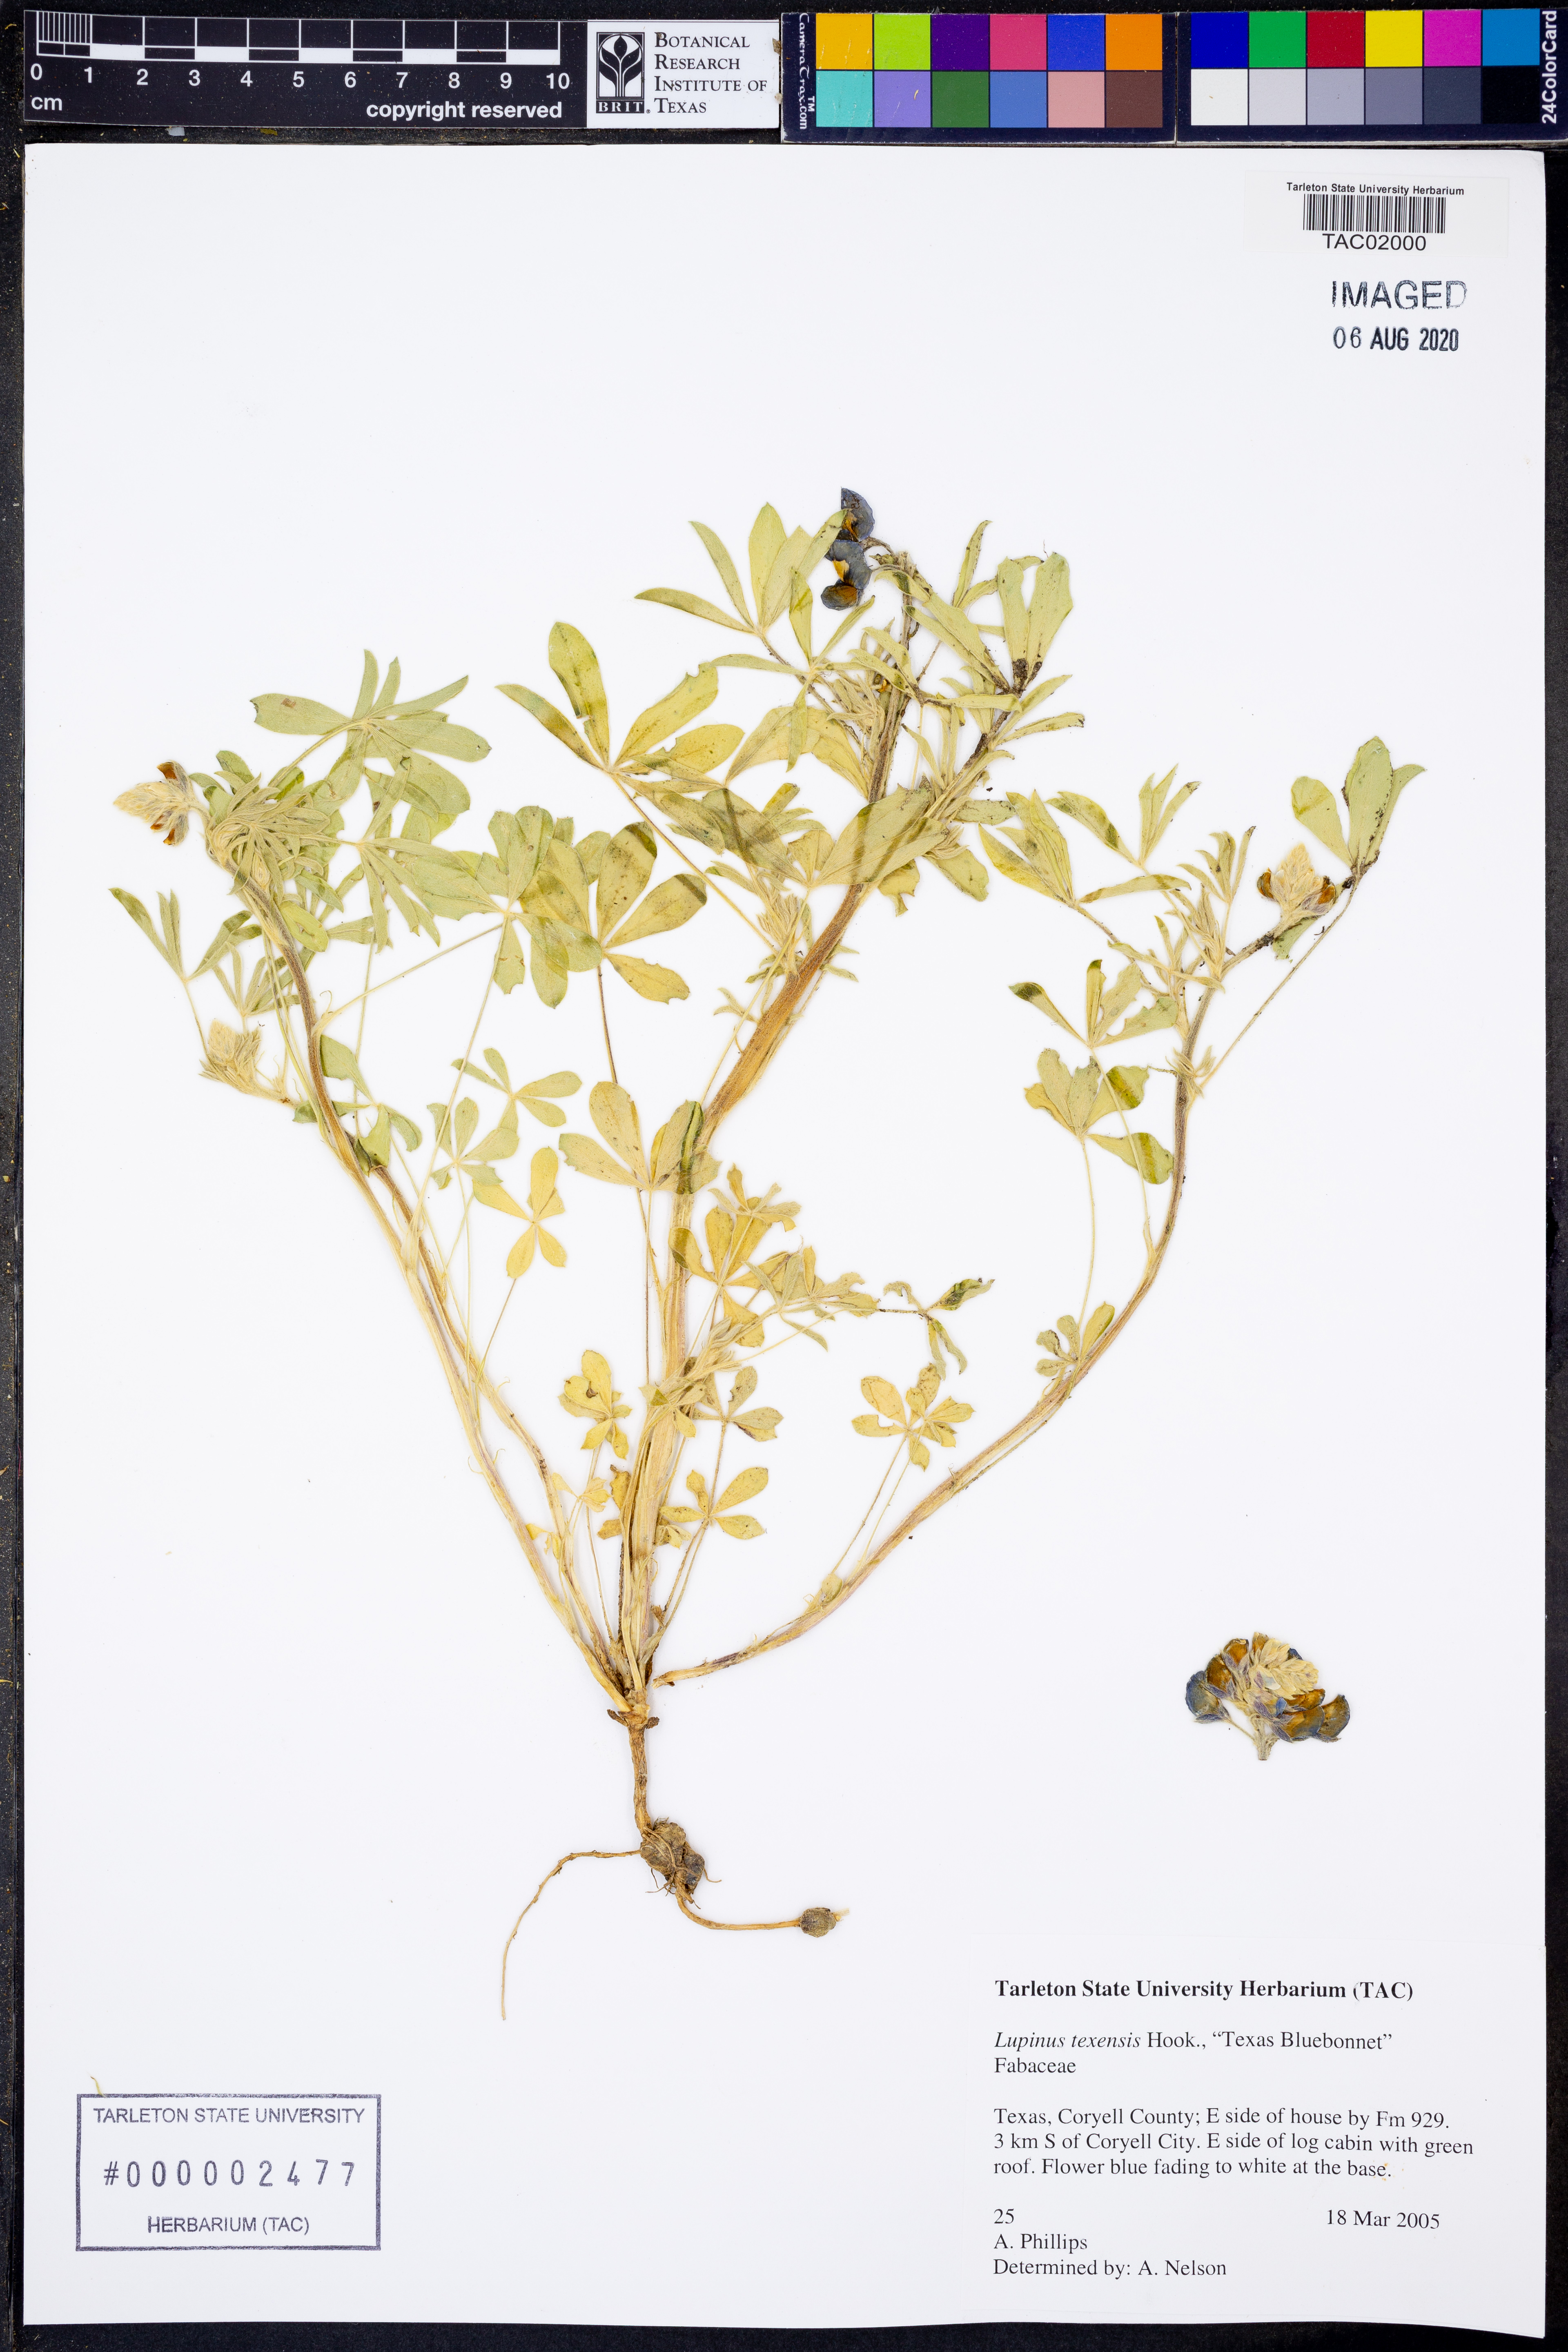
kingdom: Plantae
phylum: Tracheophyta
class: Magnoliopsida
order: Fabales
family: Fabaceae
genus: Lupinus
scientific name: Lupinus texensis
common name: Texas bluebonnet
